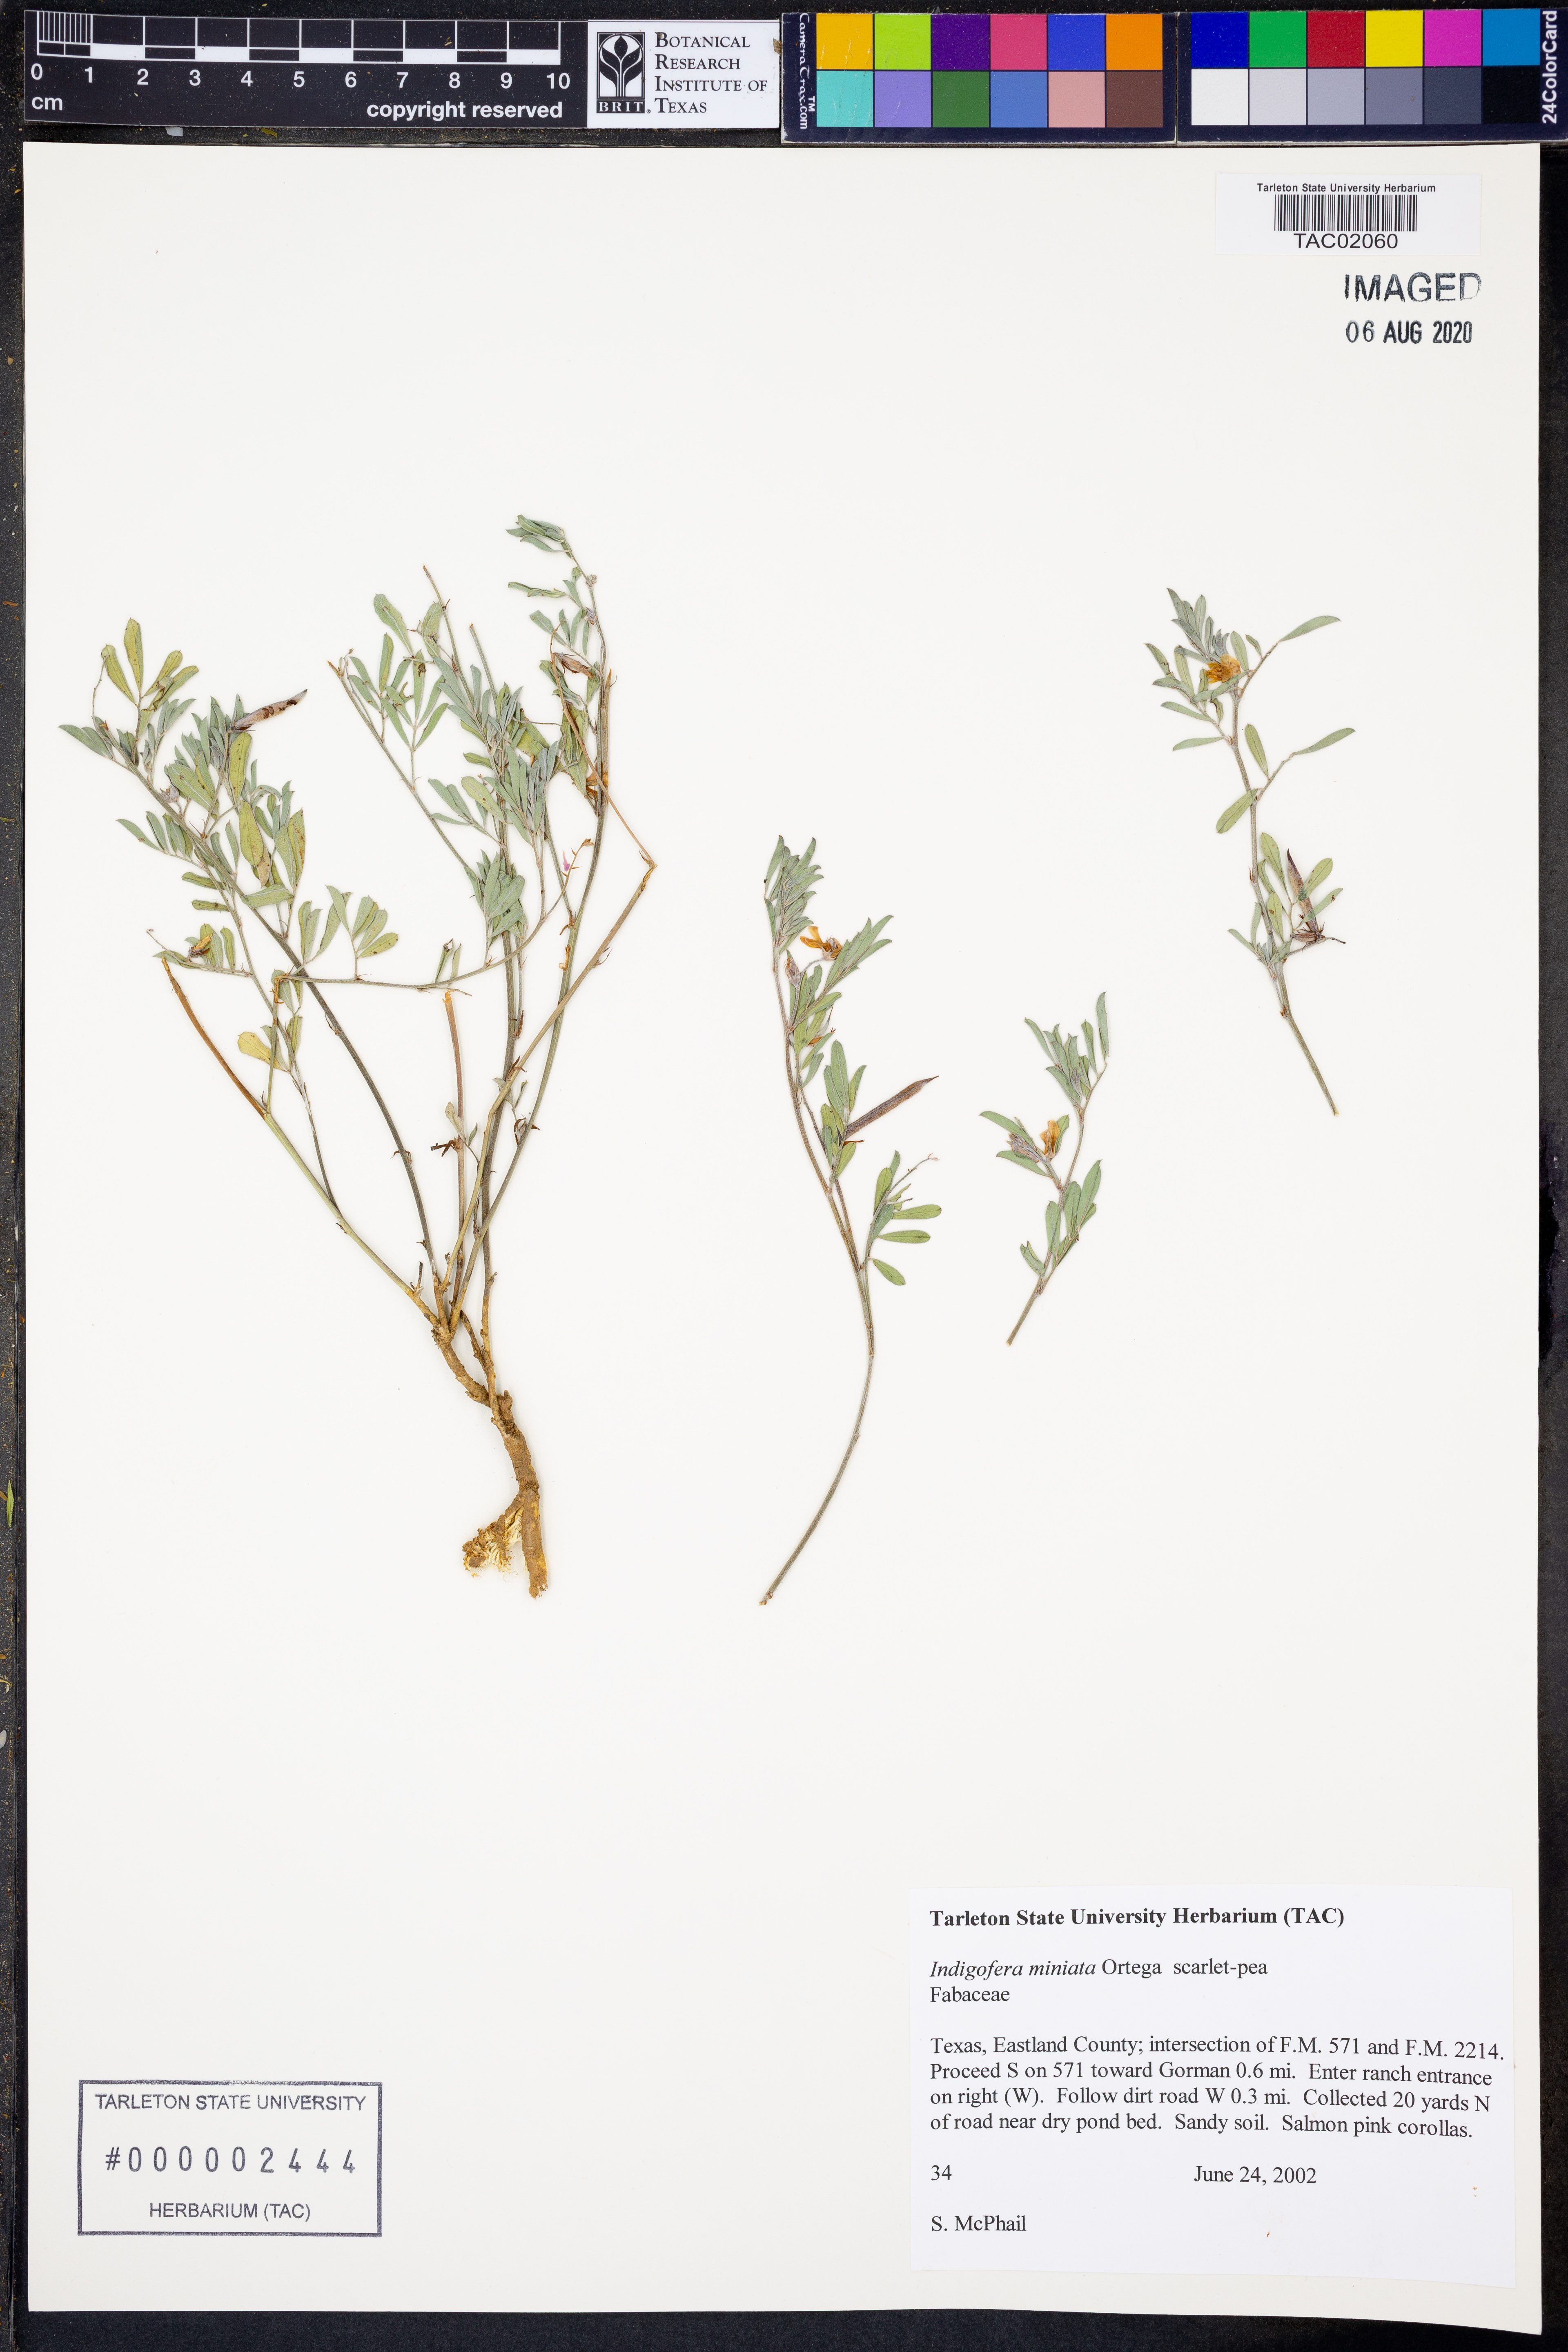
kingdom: Plantae
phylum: Tracheophyta
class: Magnoliopsida
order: Fabales
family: Fabaceae
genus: Indigofera
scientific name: Indigofera miniata
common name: Coast indigo
